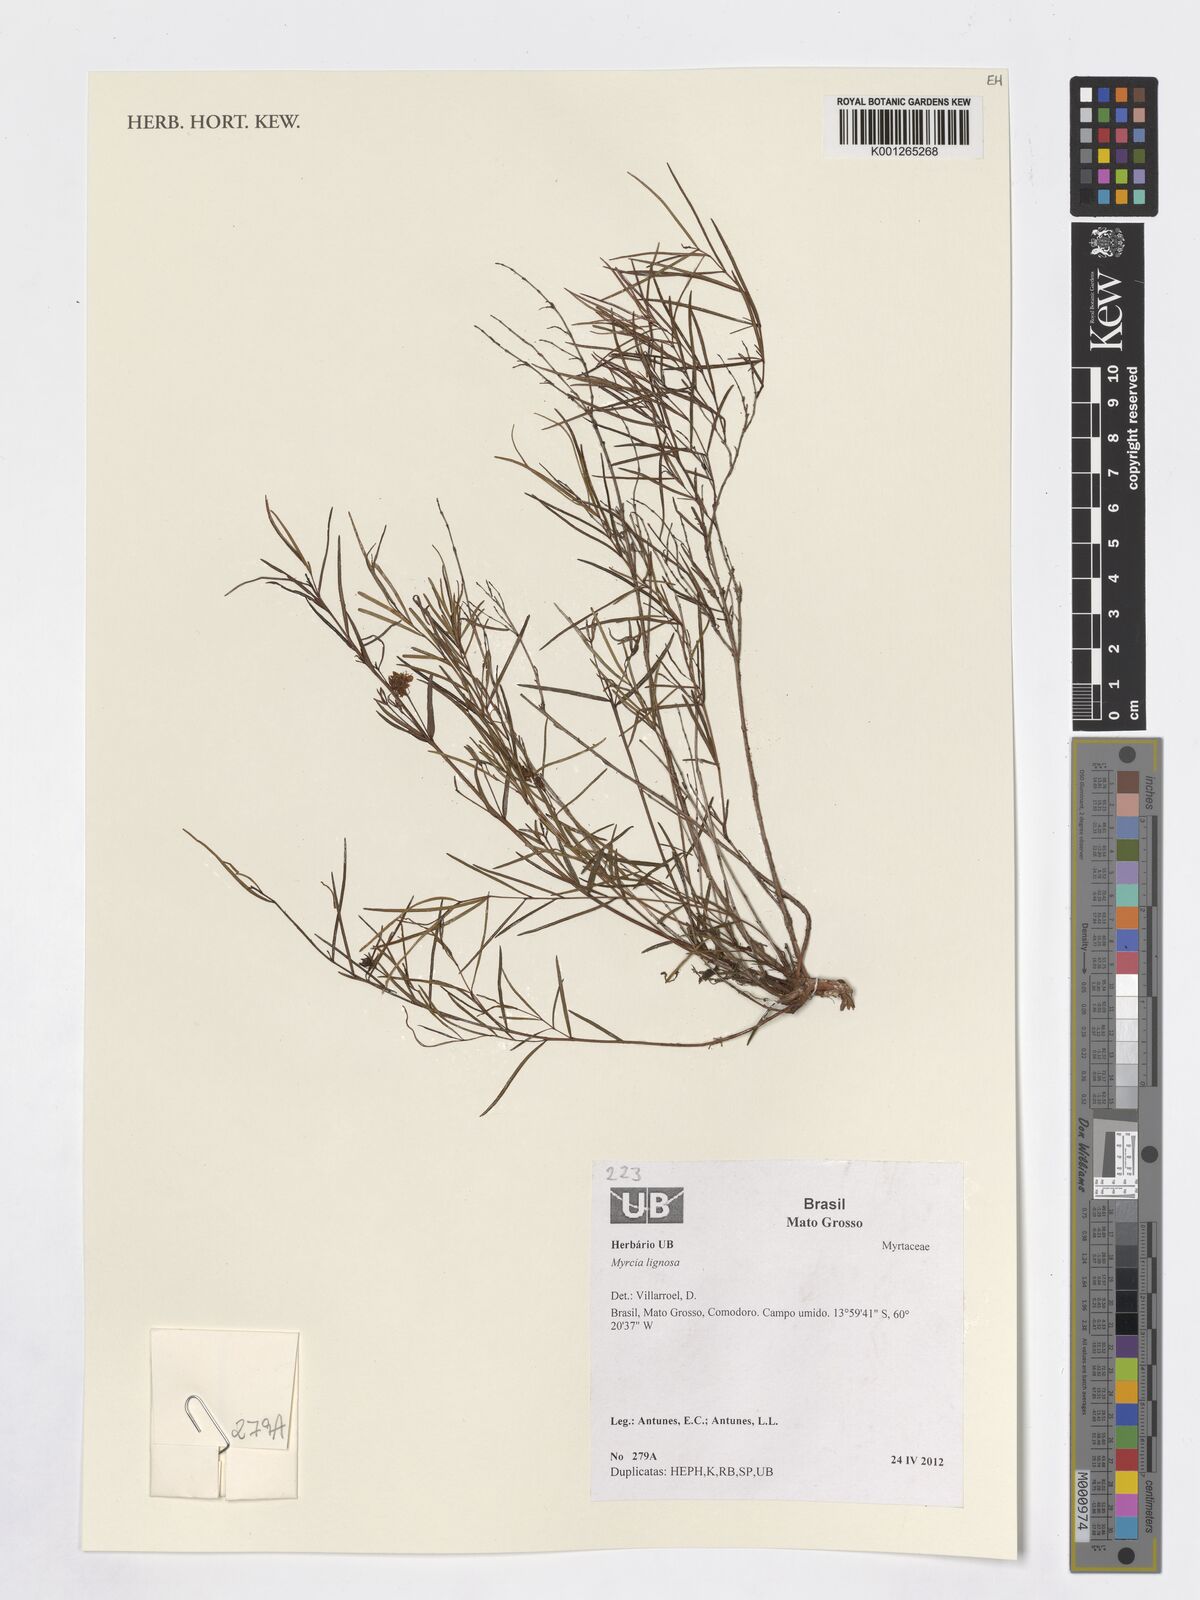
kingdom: Plantae
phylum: Tracheophyta
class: Magnoliopsida
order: Myrtales
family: Myrtaceae
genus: Myrcia
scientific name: Myrcia lignosa
